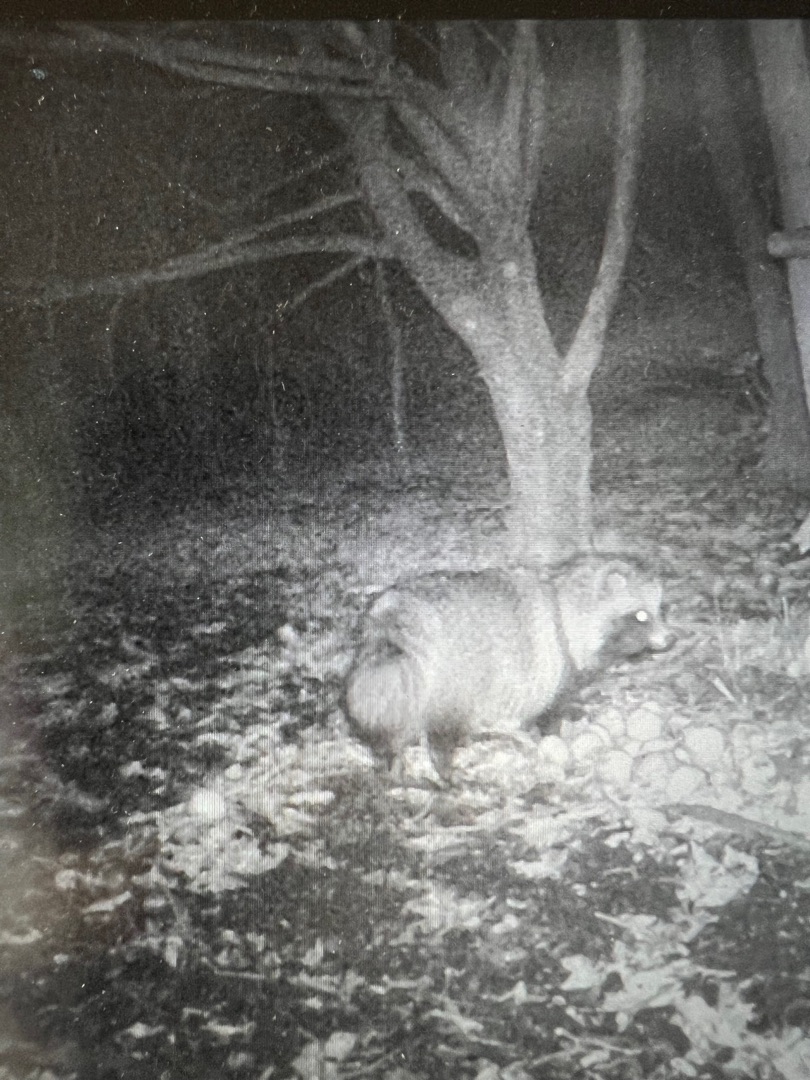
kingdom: Animalia
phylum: Chordata
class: Mammalia
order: Carnivora
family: Canidae
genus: Nyctereutes
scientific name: Nyctereutes procyonoides
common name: Mårhund
